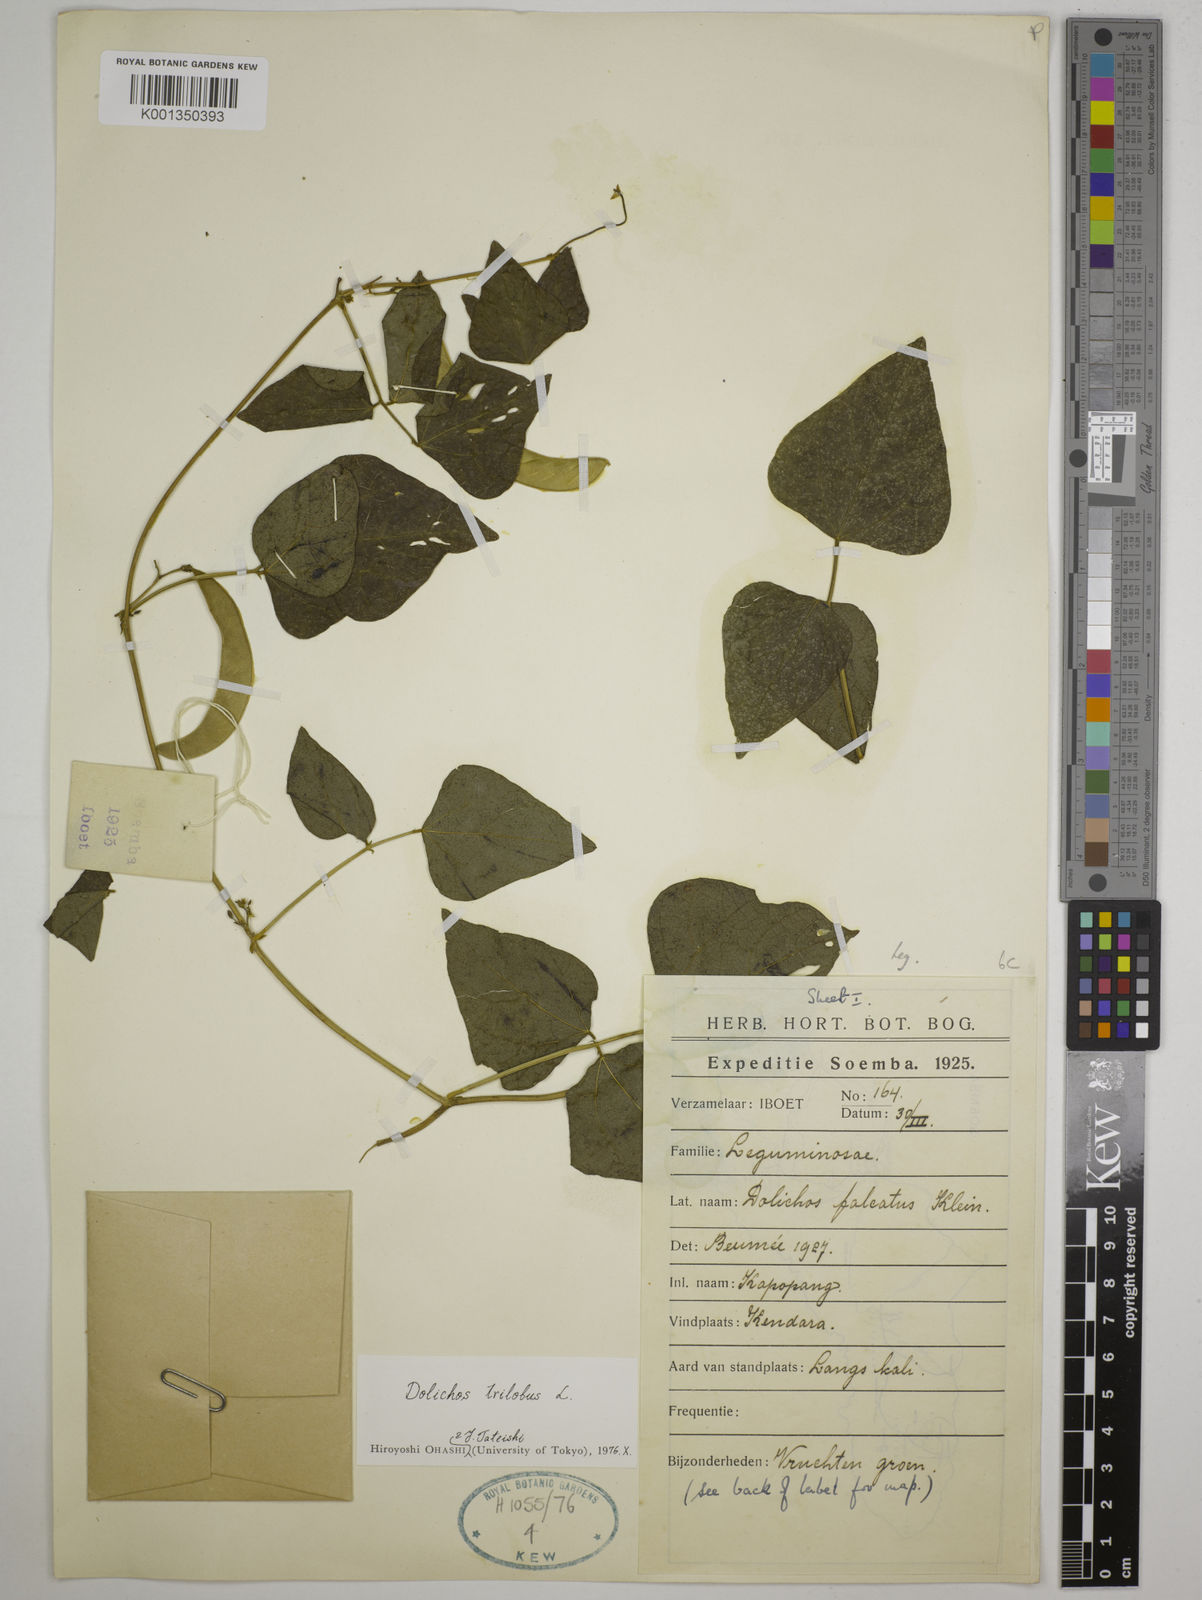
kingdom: Plantae
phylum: Tracheophyta
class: Magnoliopsida
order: Fabales
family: Fabaceae
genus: Dolichos
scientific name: Dolichos
